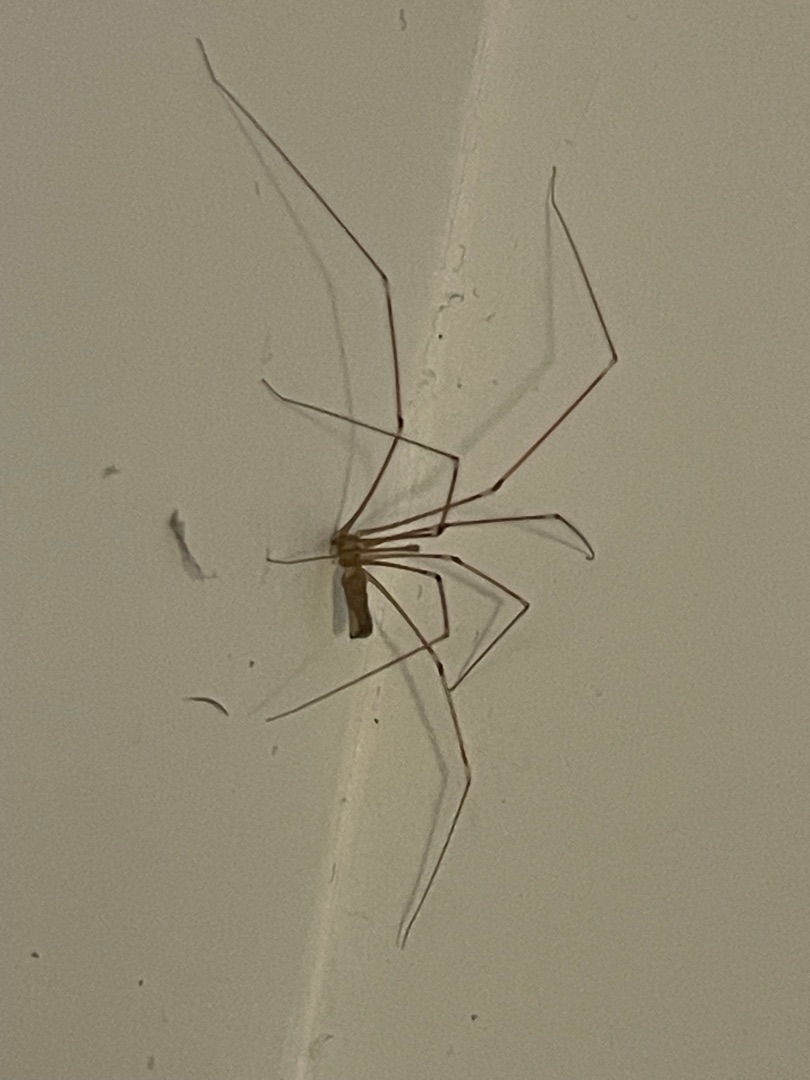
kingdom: Animalia
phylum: Arthropoda
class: Arachnida
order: Araneae
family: Pholcidae
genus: Pholcus
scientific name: Pholcus phalangioides
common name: Mejeredderkop
